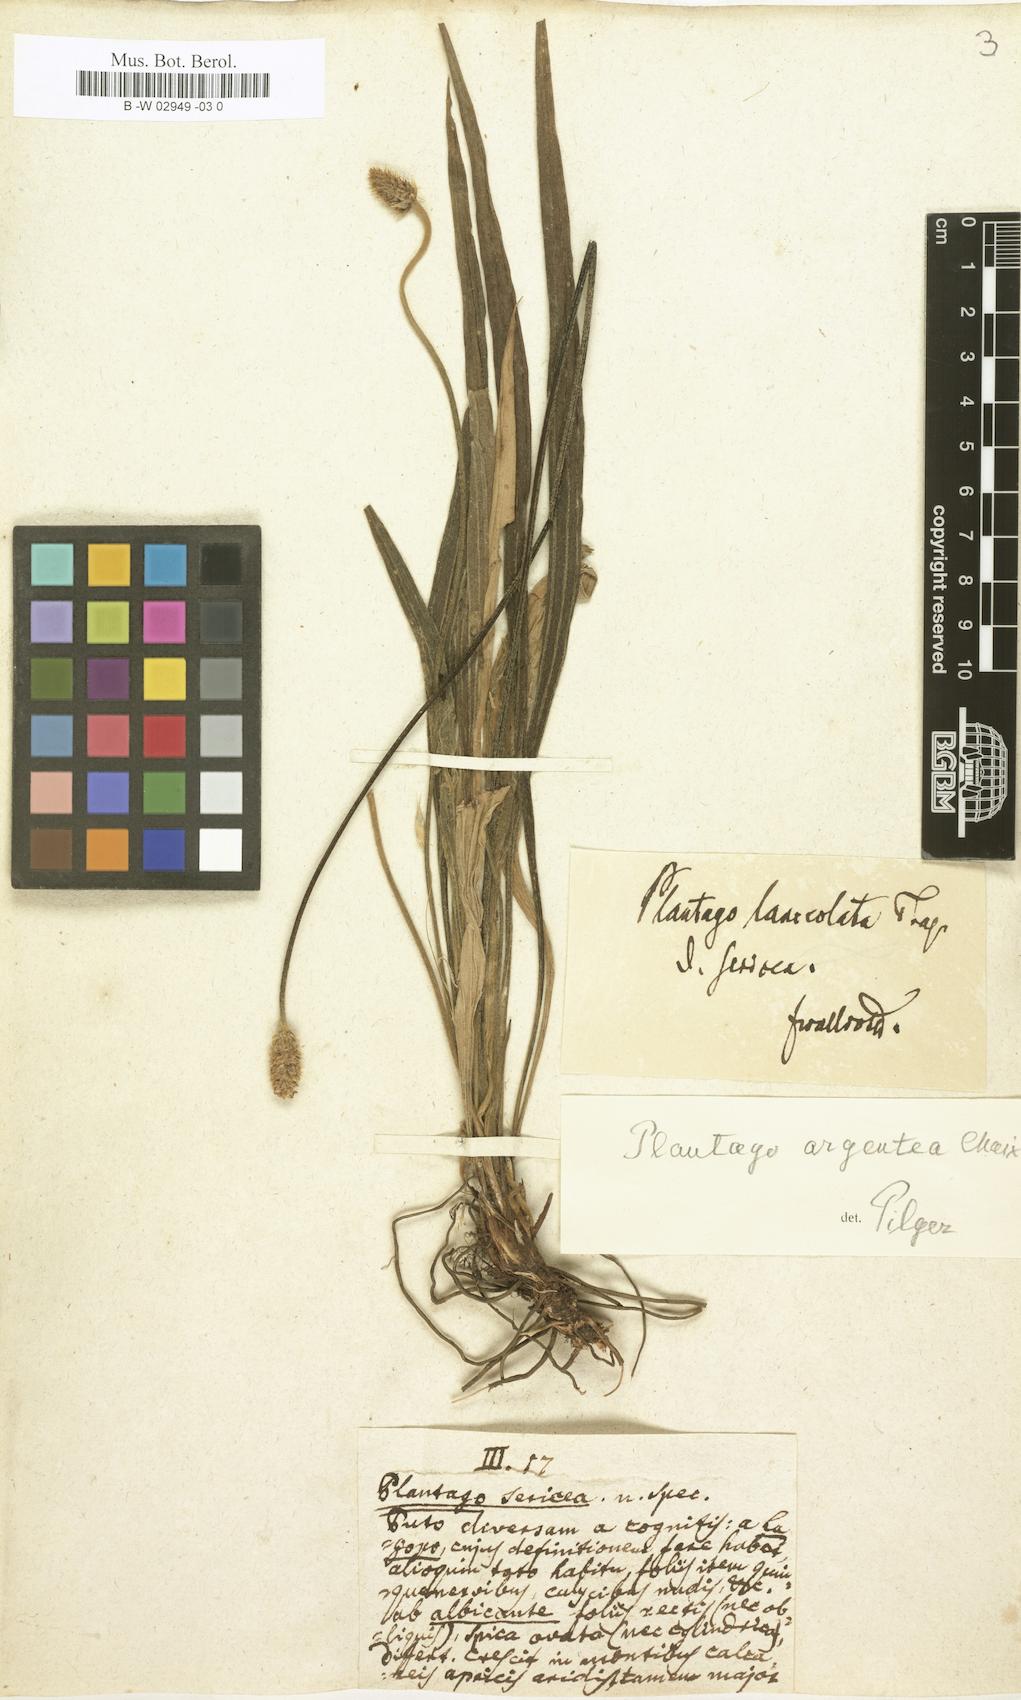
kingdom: Plantae
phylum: Tracheophyta
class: Magnoliopsida
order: Lamiales
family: Plantaginaceae
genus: Plantago
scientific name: Plantago sericea
